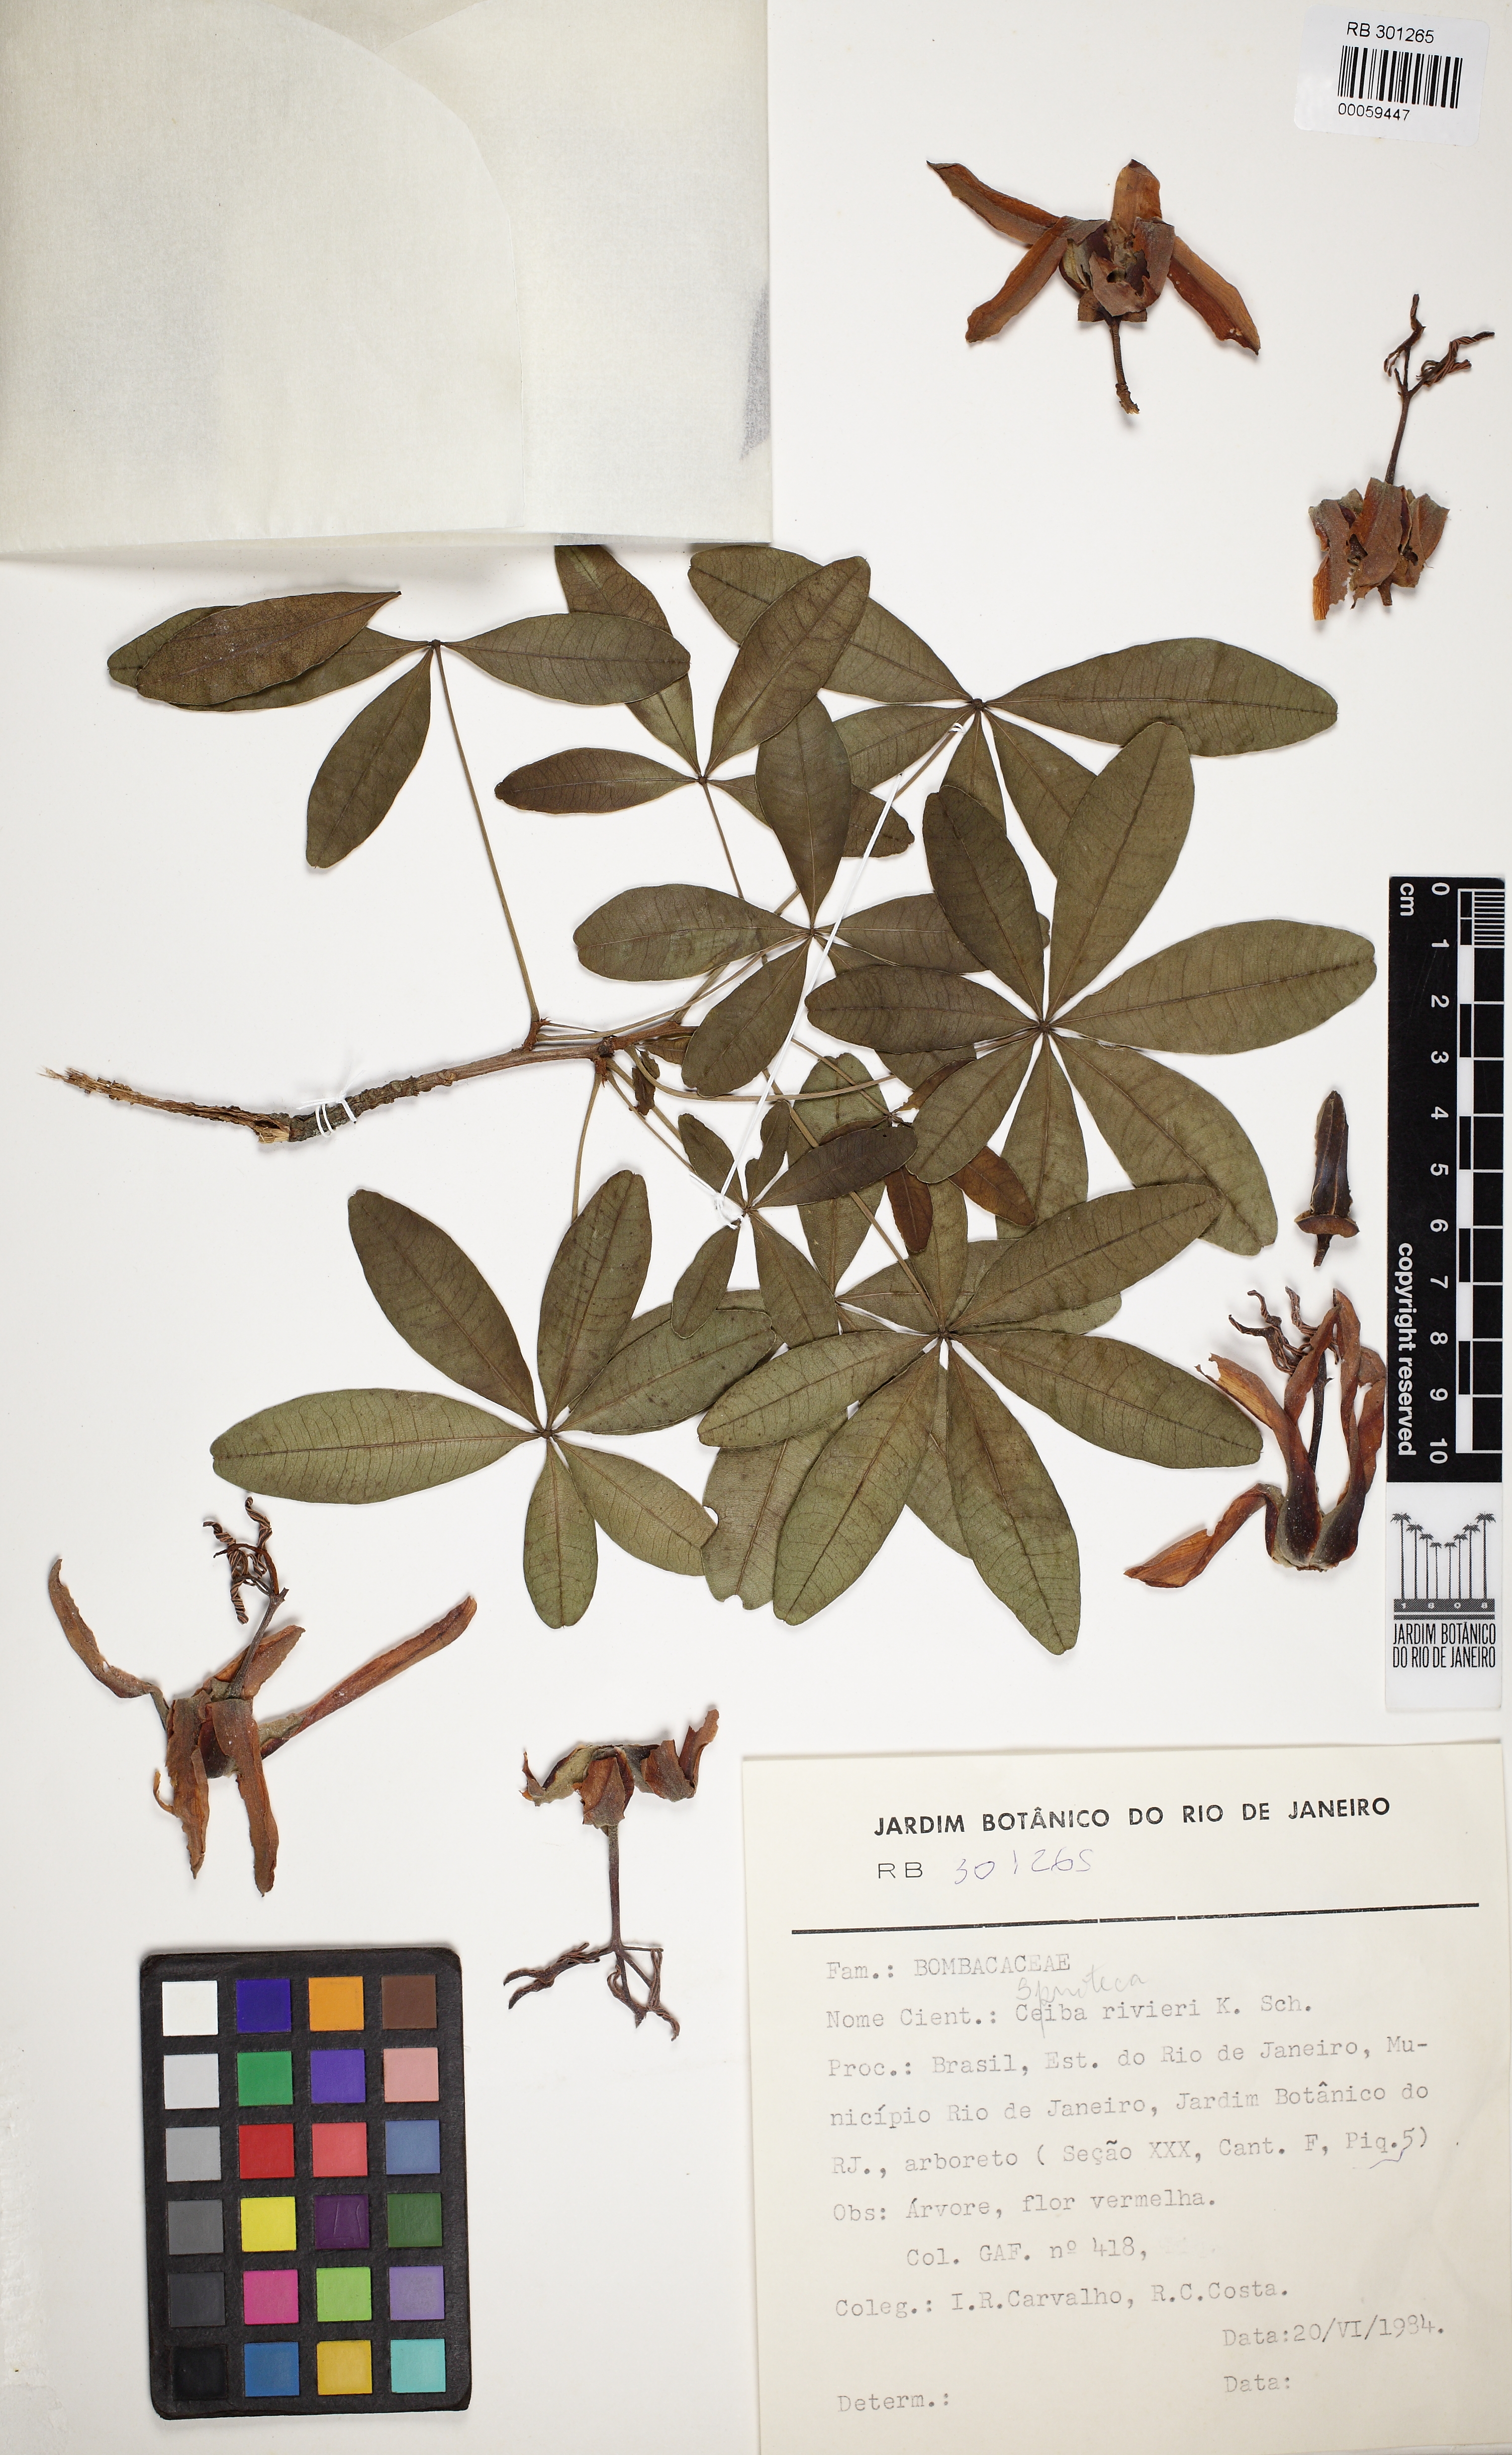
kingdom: Plantae
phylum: Tracheophyta
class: Magnoliopsida
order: Malvales
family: Malvaceae
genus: Spirotheca
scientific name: Spirotheca rivieri
